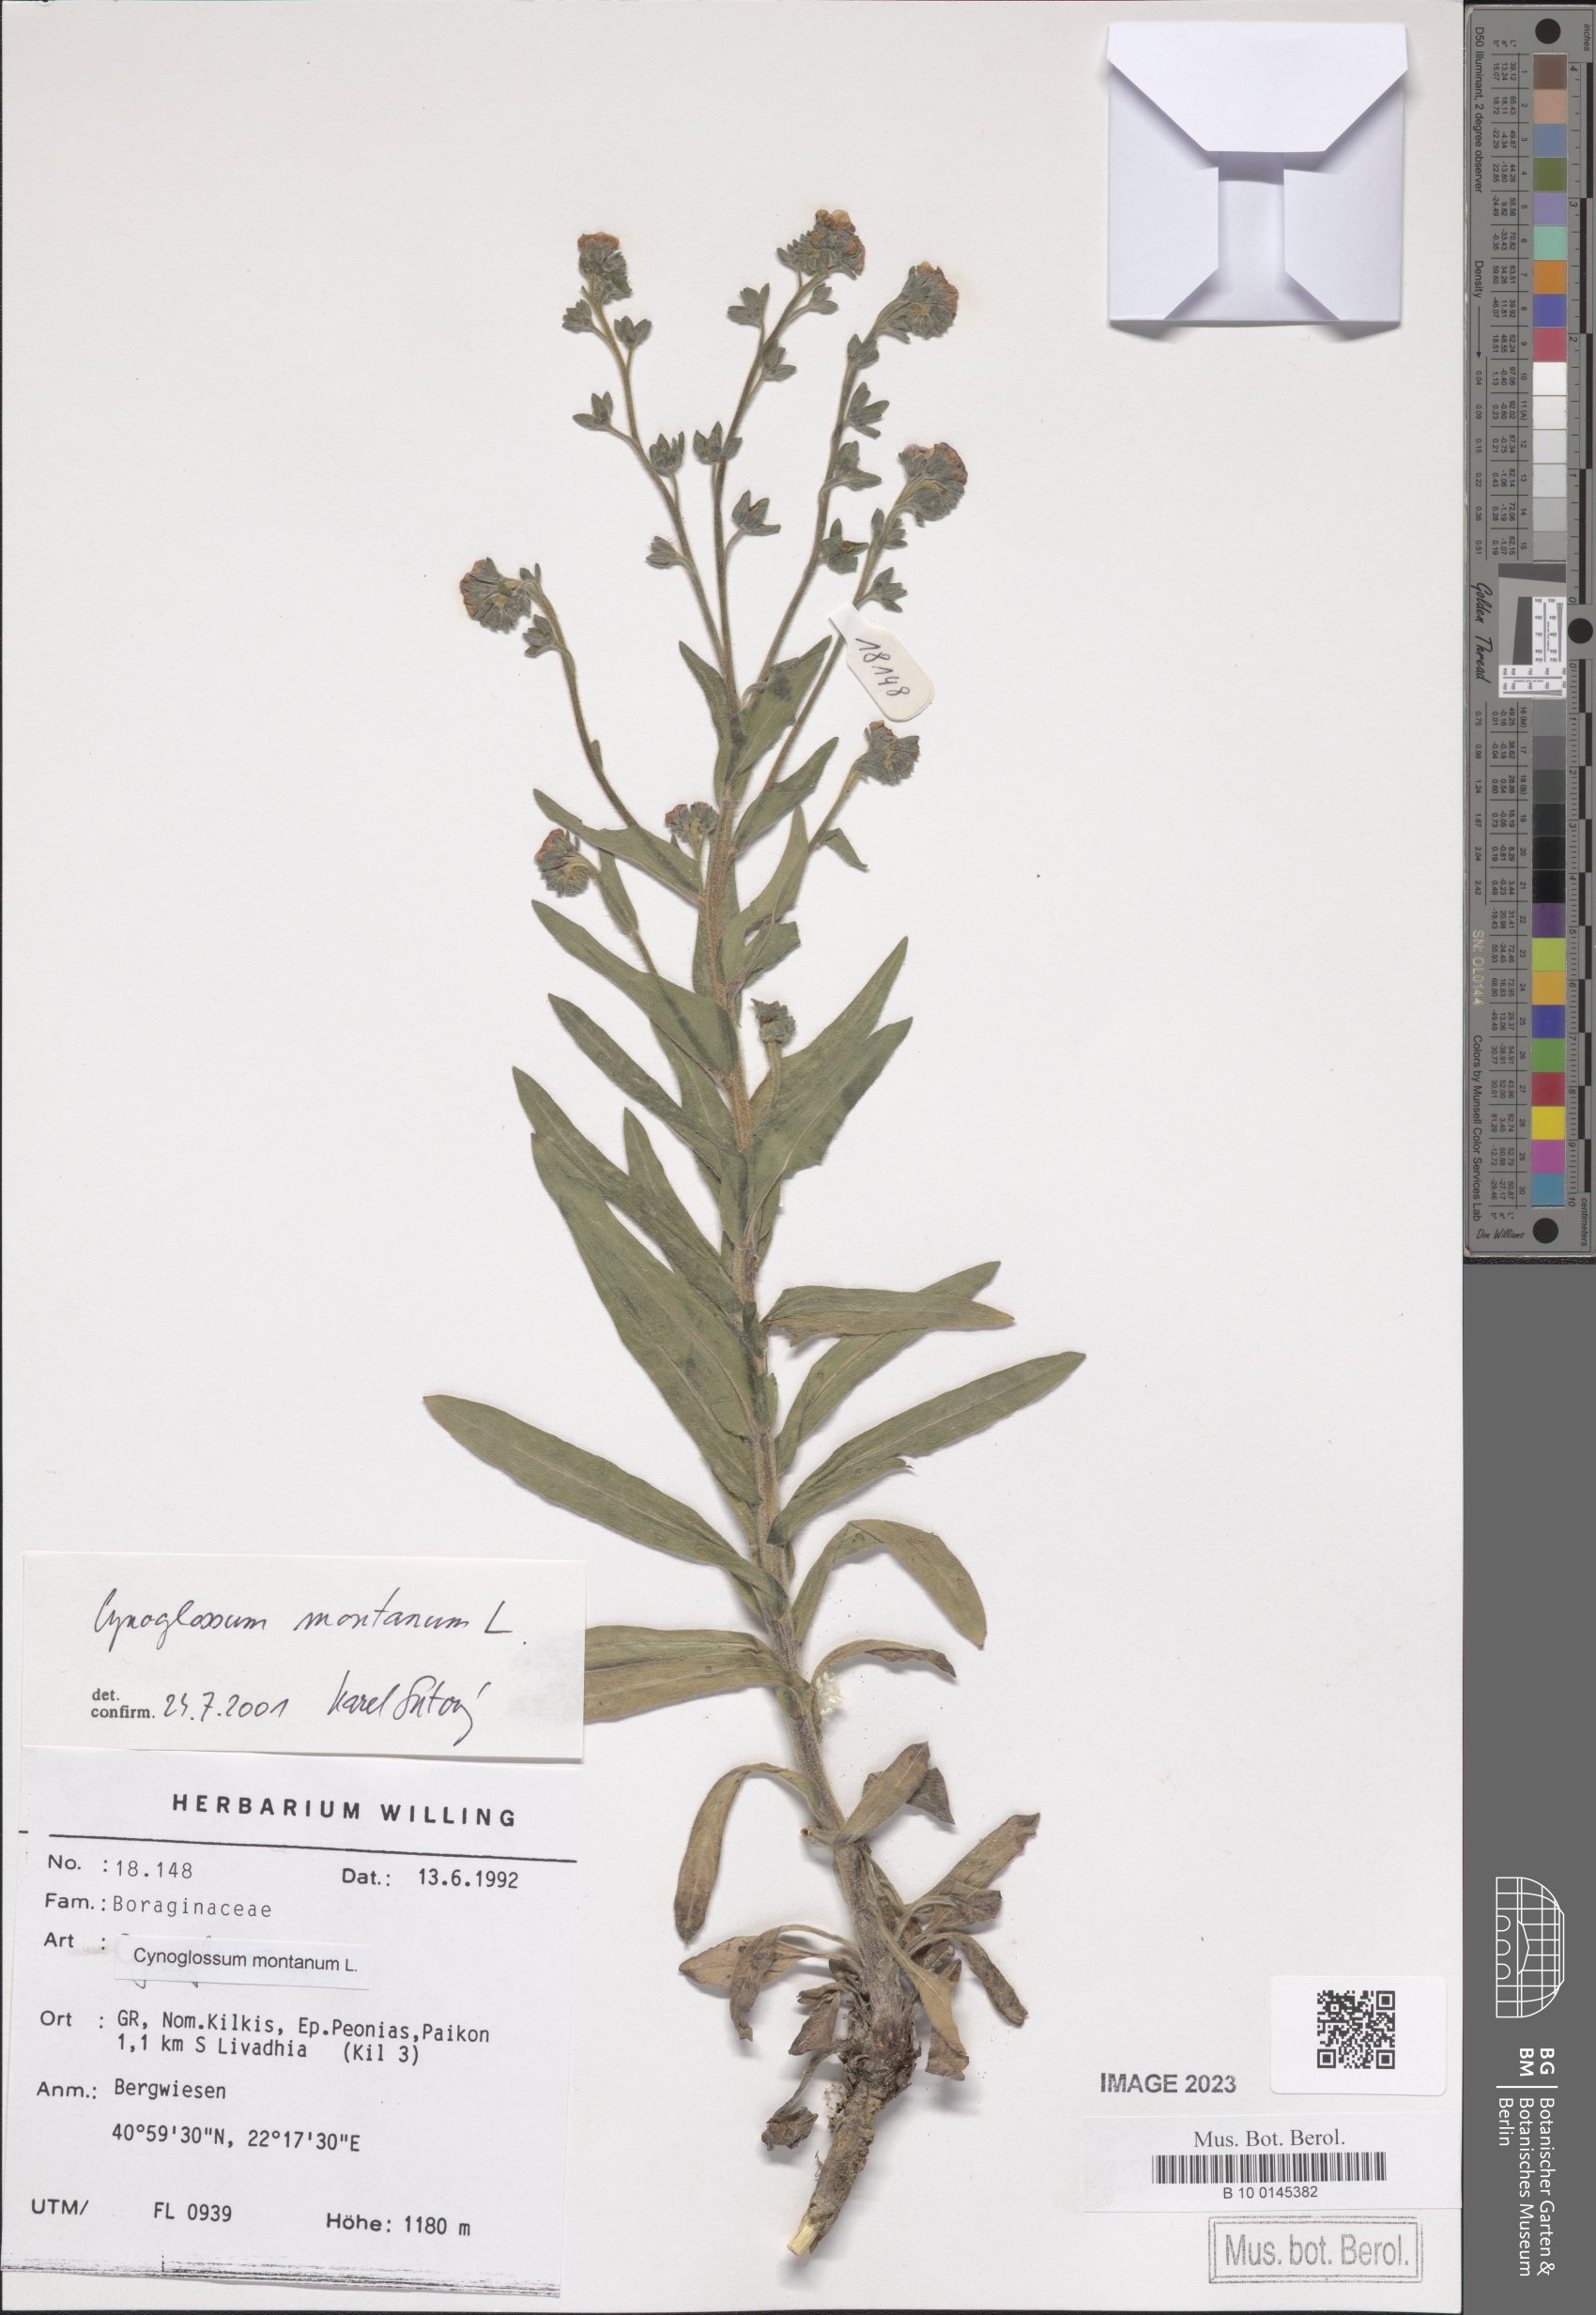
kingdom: Plantae
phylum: Tracheophyta
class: Magnoliopsida
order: Boraginales
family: Boraginaceae
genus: Cynoglossum
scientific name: Cynoglossum montanum
